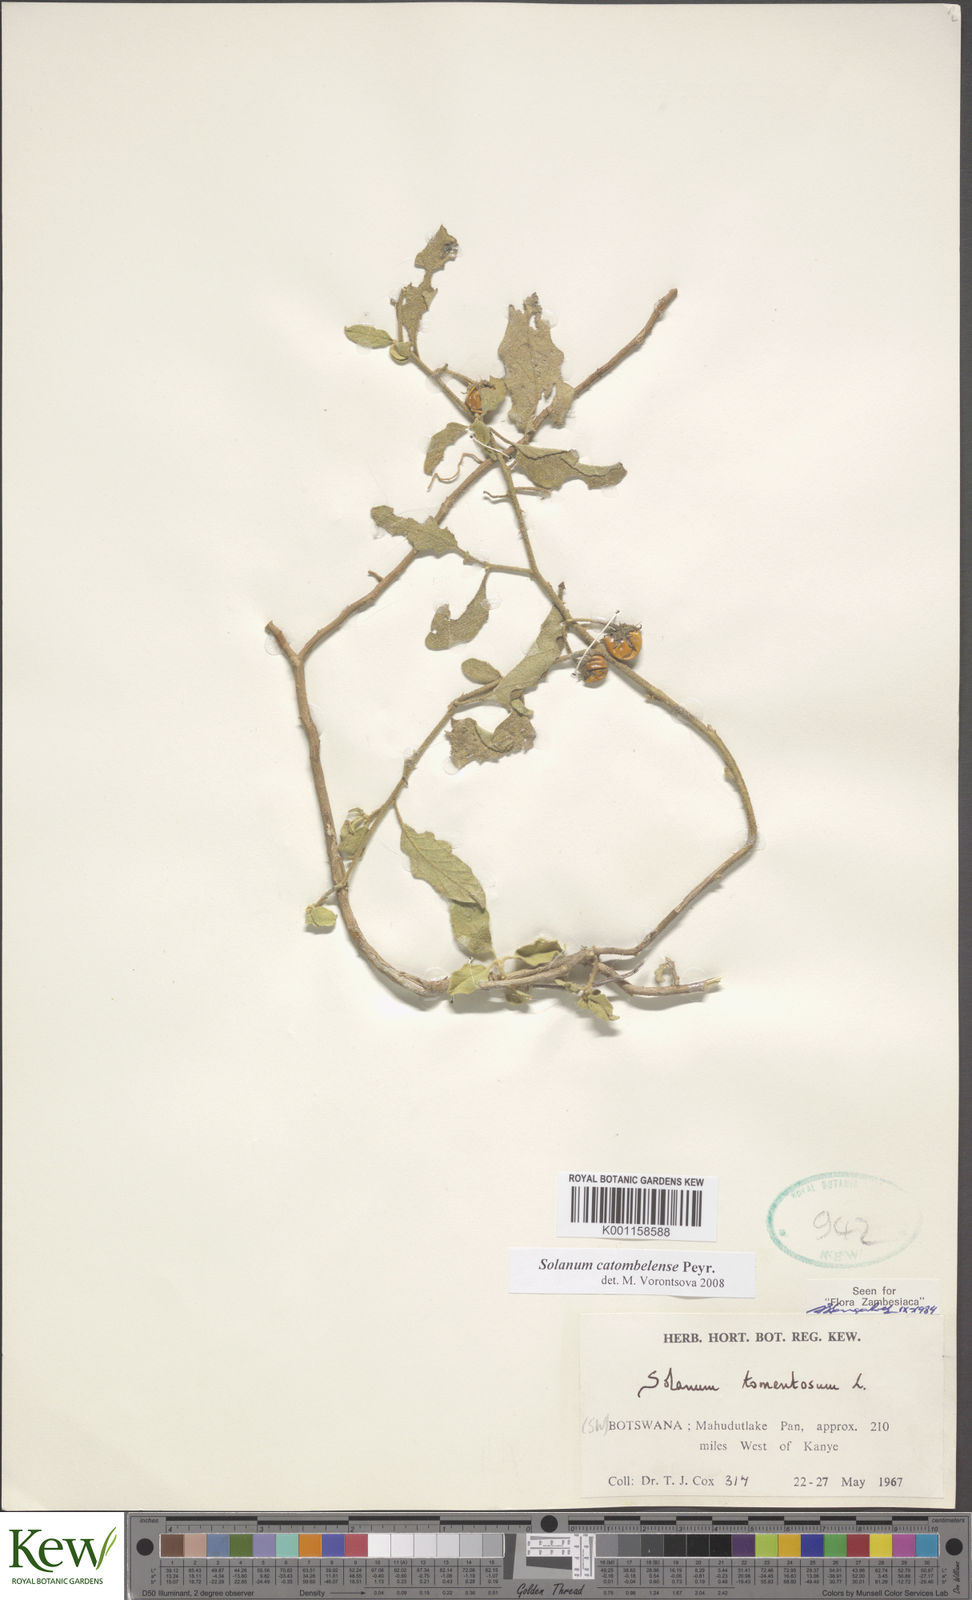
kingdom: Plantae
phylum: Tracheophyta
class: Magnoliopsida
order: Solanales
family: Solanaceae
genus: Solanum
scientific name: Solanum catombelense
